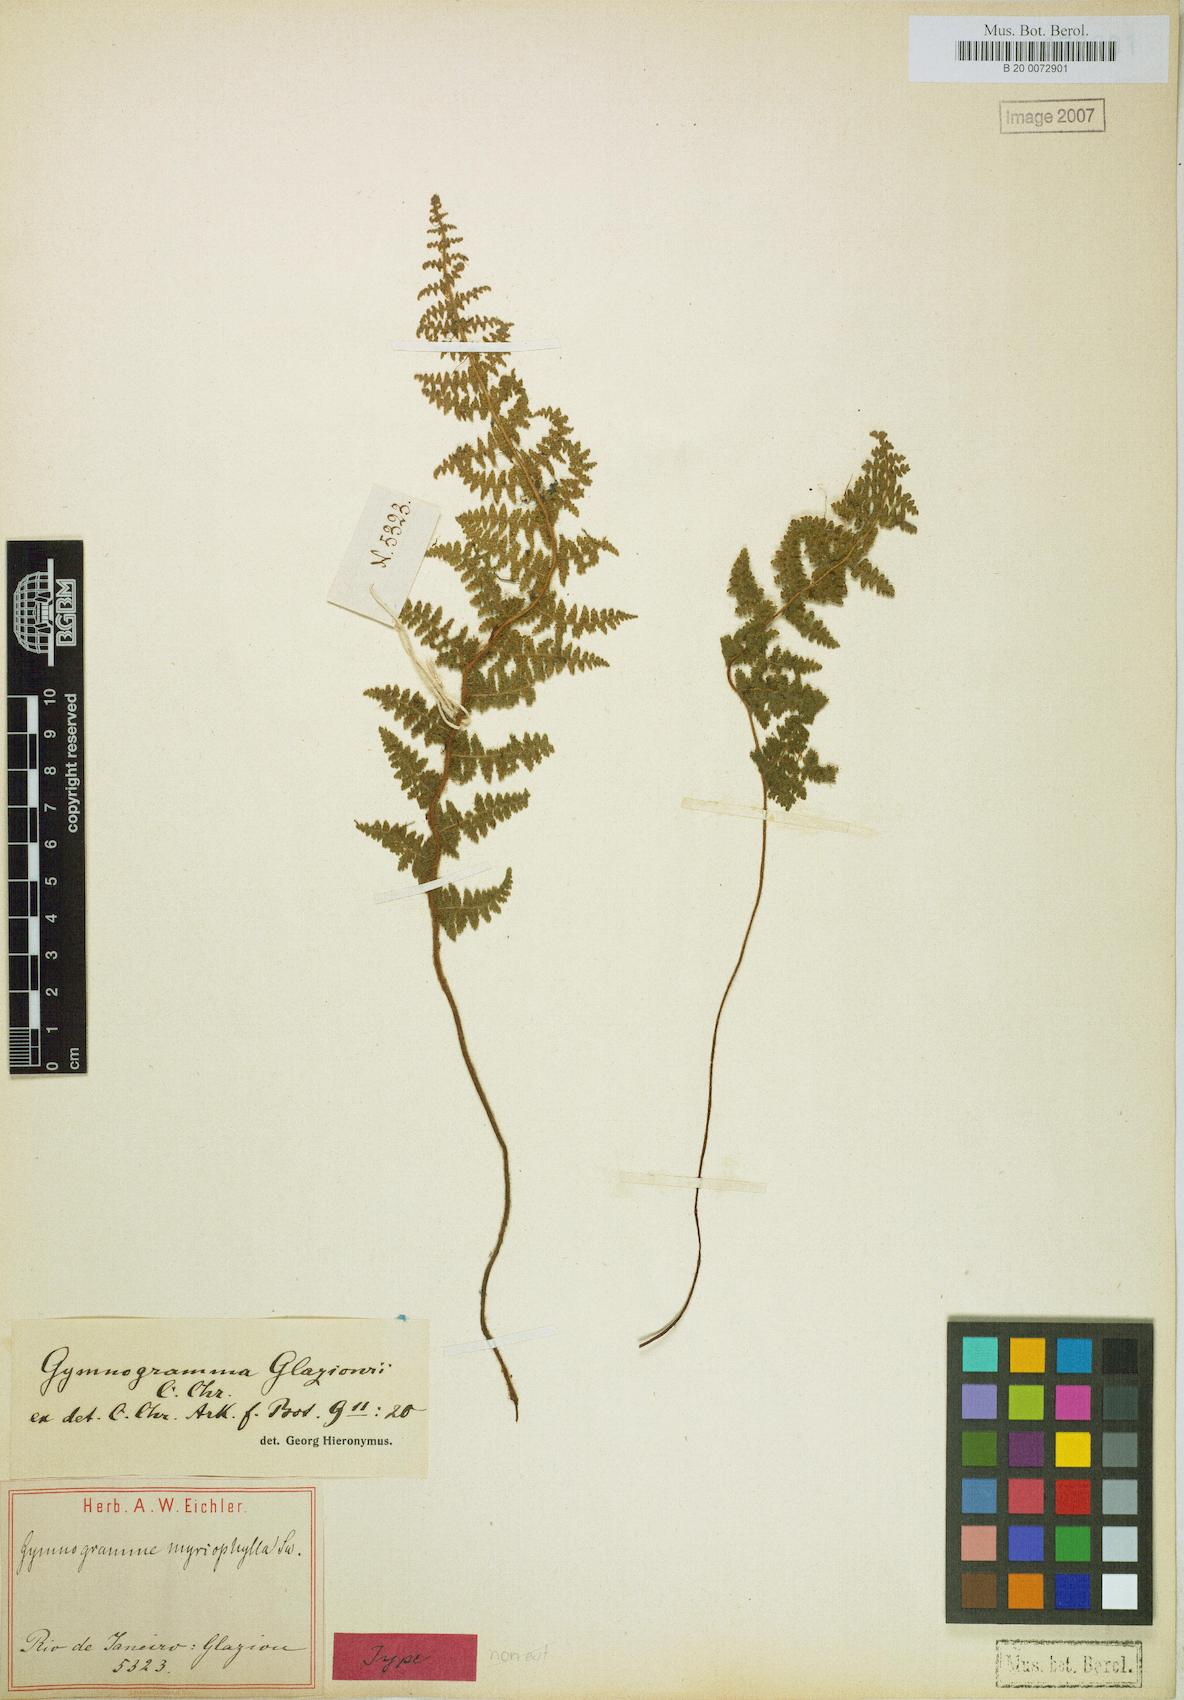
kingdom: Plantae
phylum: Tracheophyta
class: Polypodiopsida
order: Polypodiales
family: Pteridaceae
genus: Tryonia
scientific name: Tryonia myriophylla
